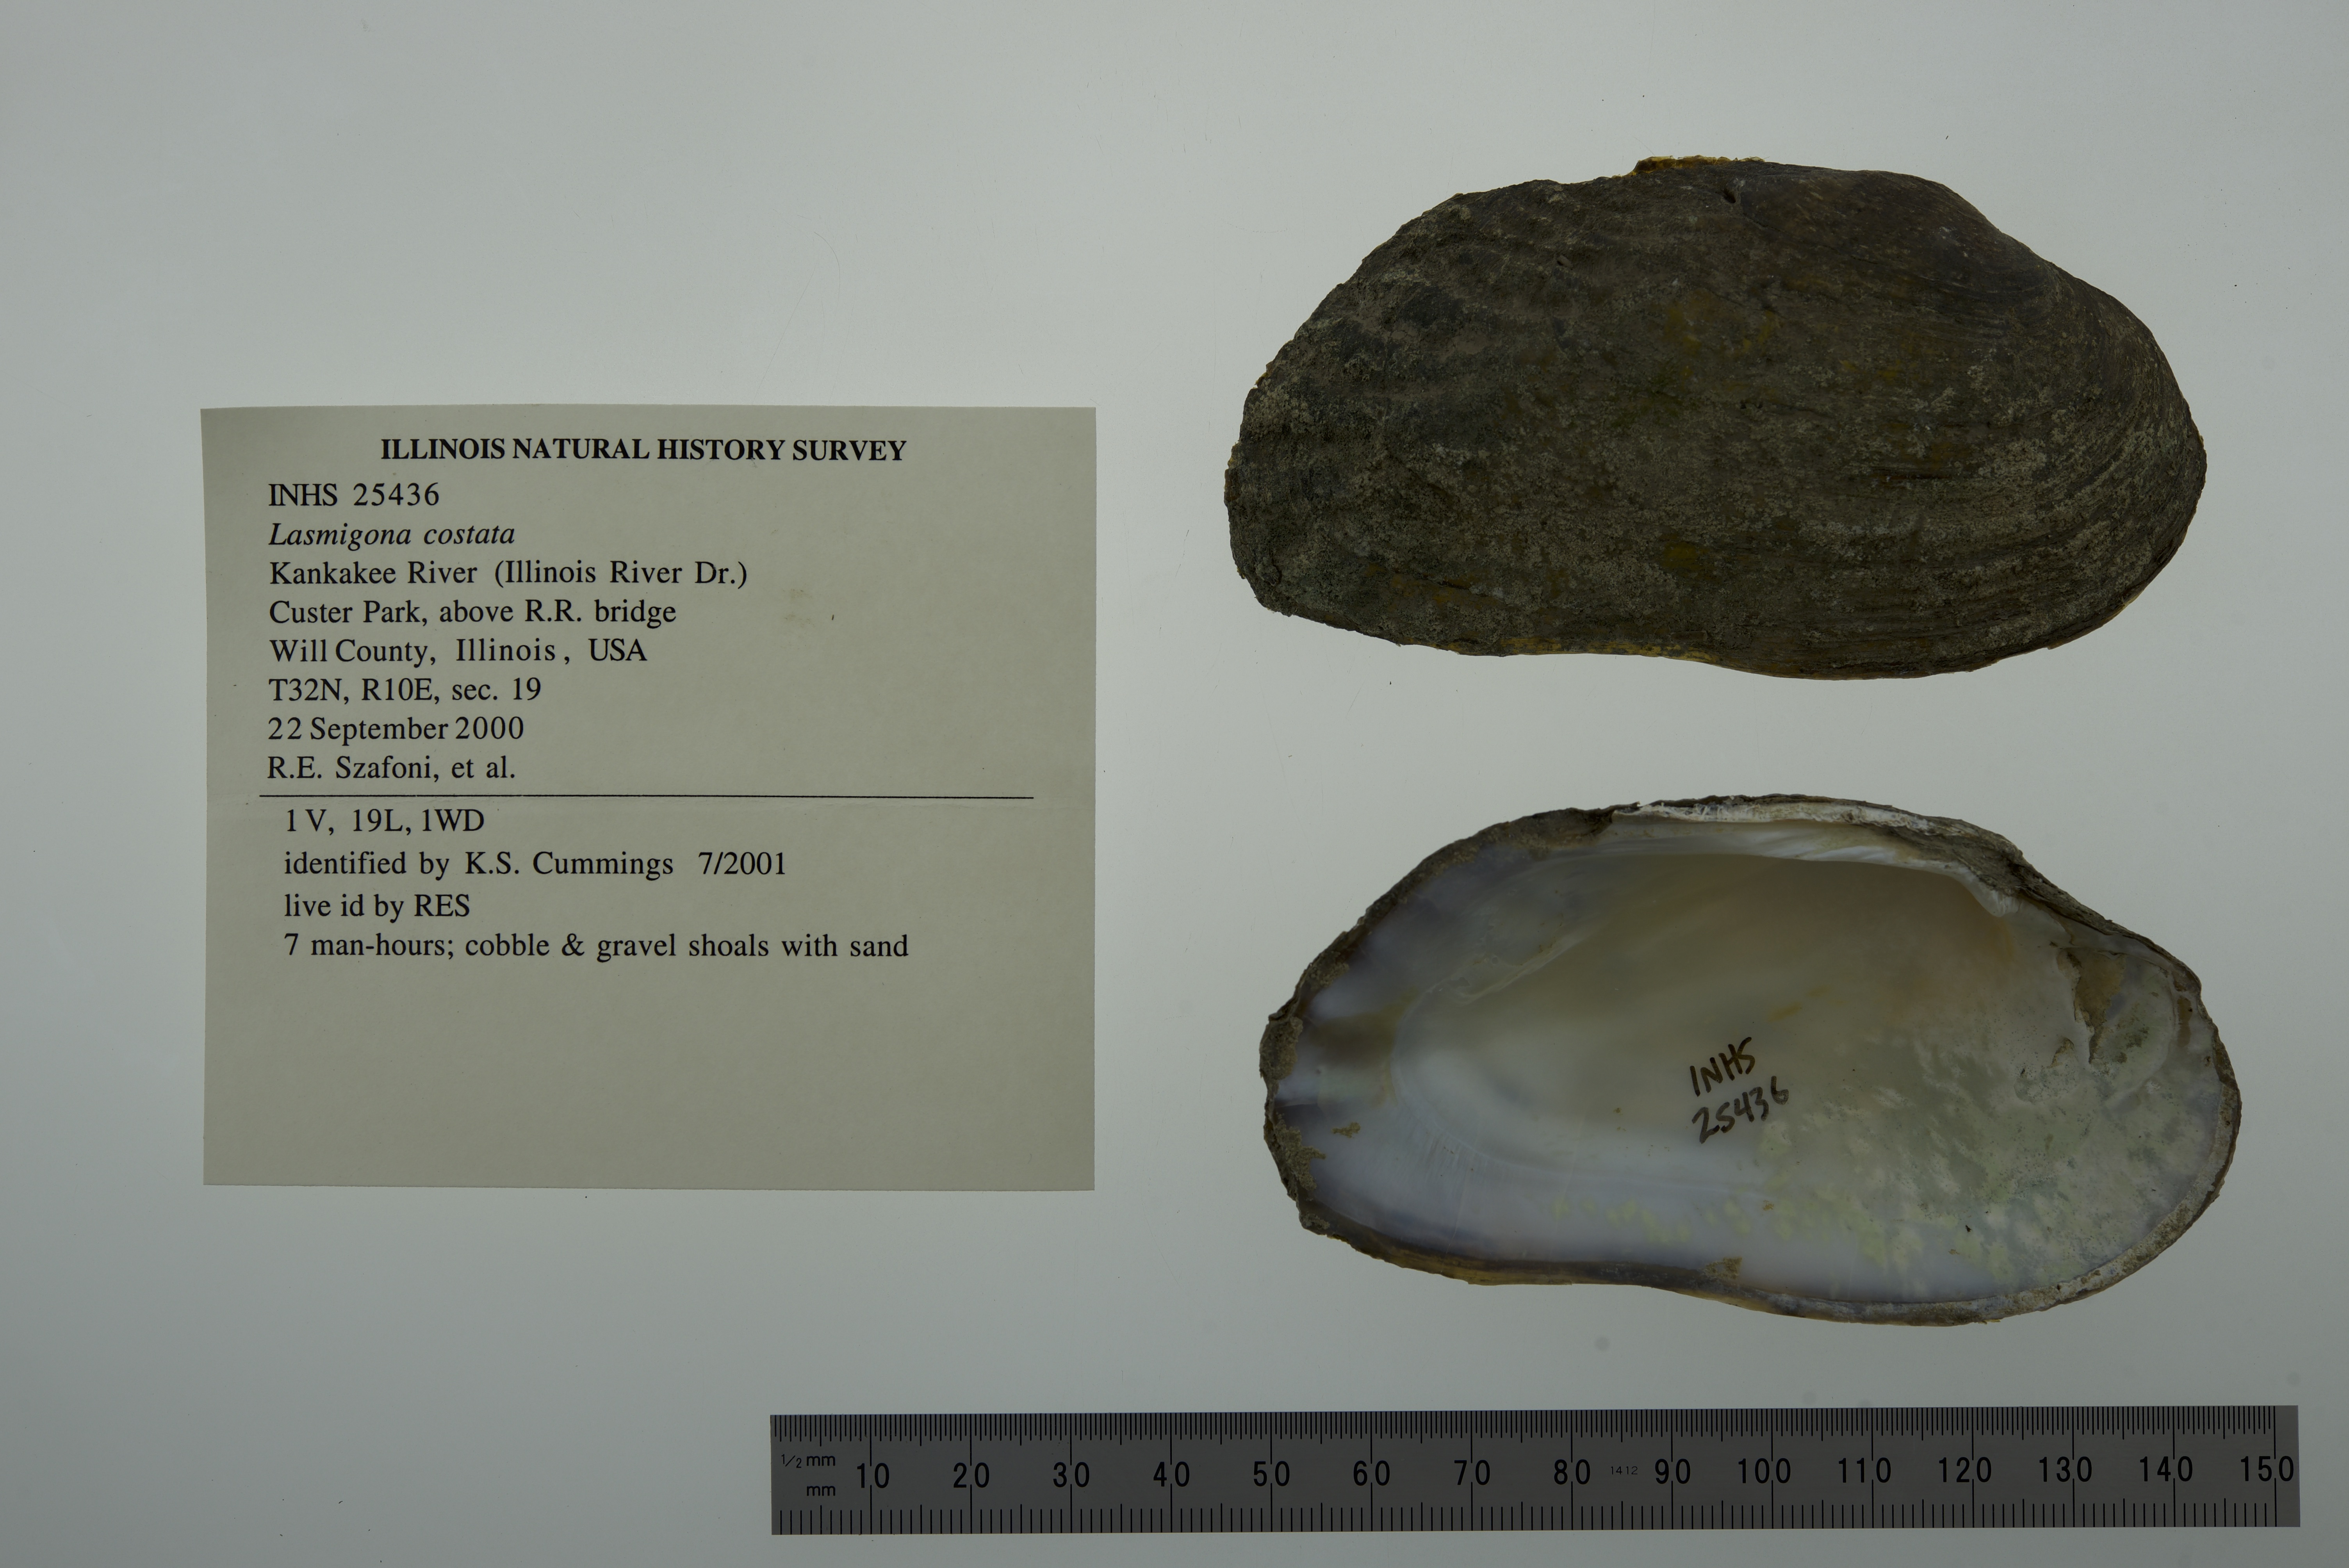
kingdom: Animalia
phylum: Mollusca
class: Bivalvia
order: Unionida
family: Unionidae
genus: Lasmigona
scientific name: Lasmigona costata
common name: Flutedshell
